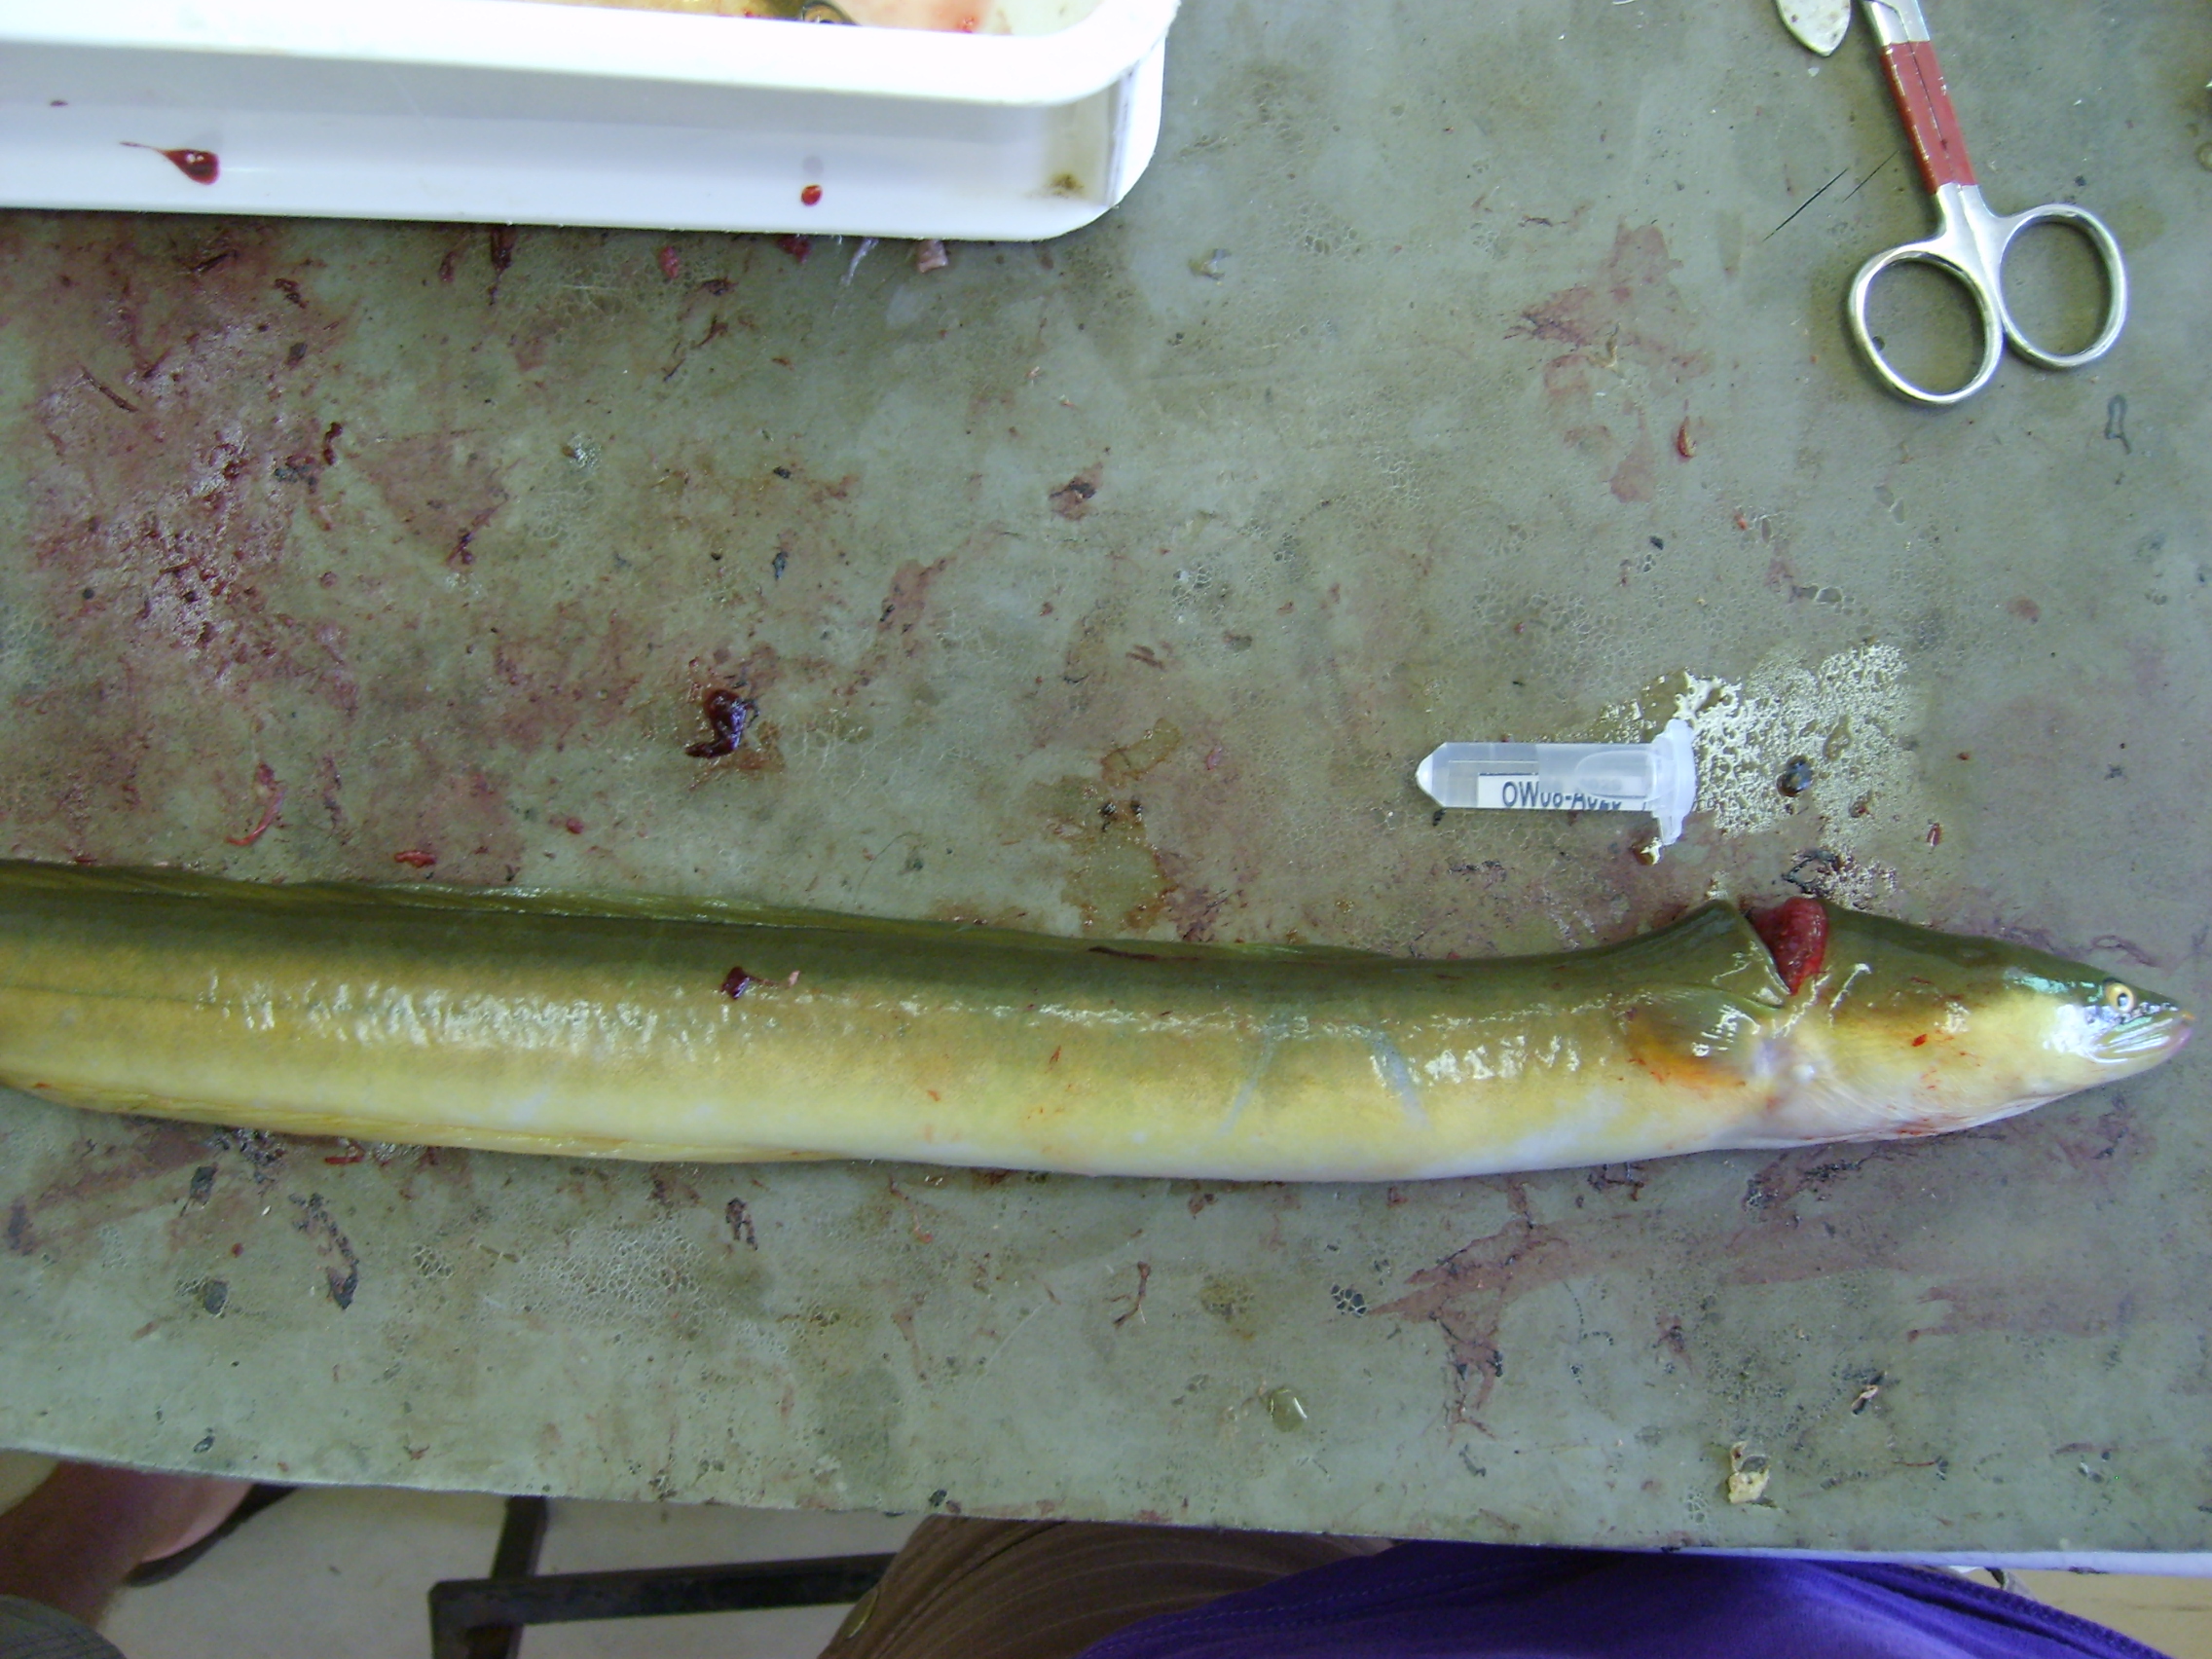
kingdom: Animalia
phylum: Chordata
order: Anguilliformes
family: Anguillidae
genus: Anguilla
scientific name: Anguilla mossambica
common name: African longfin eel
